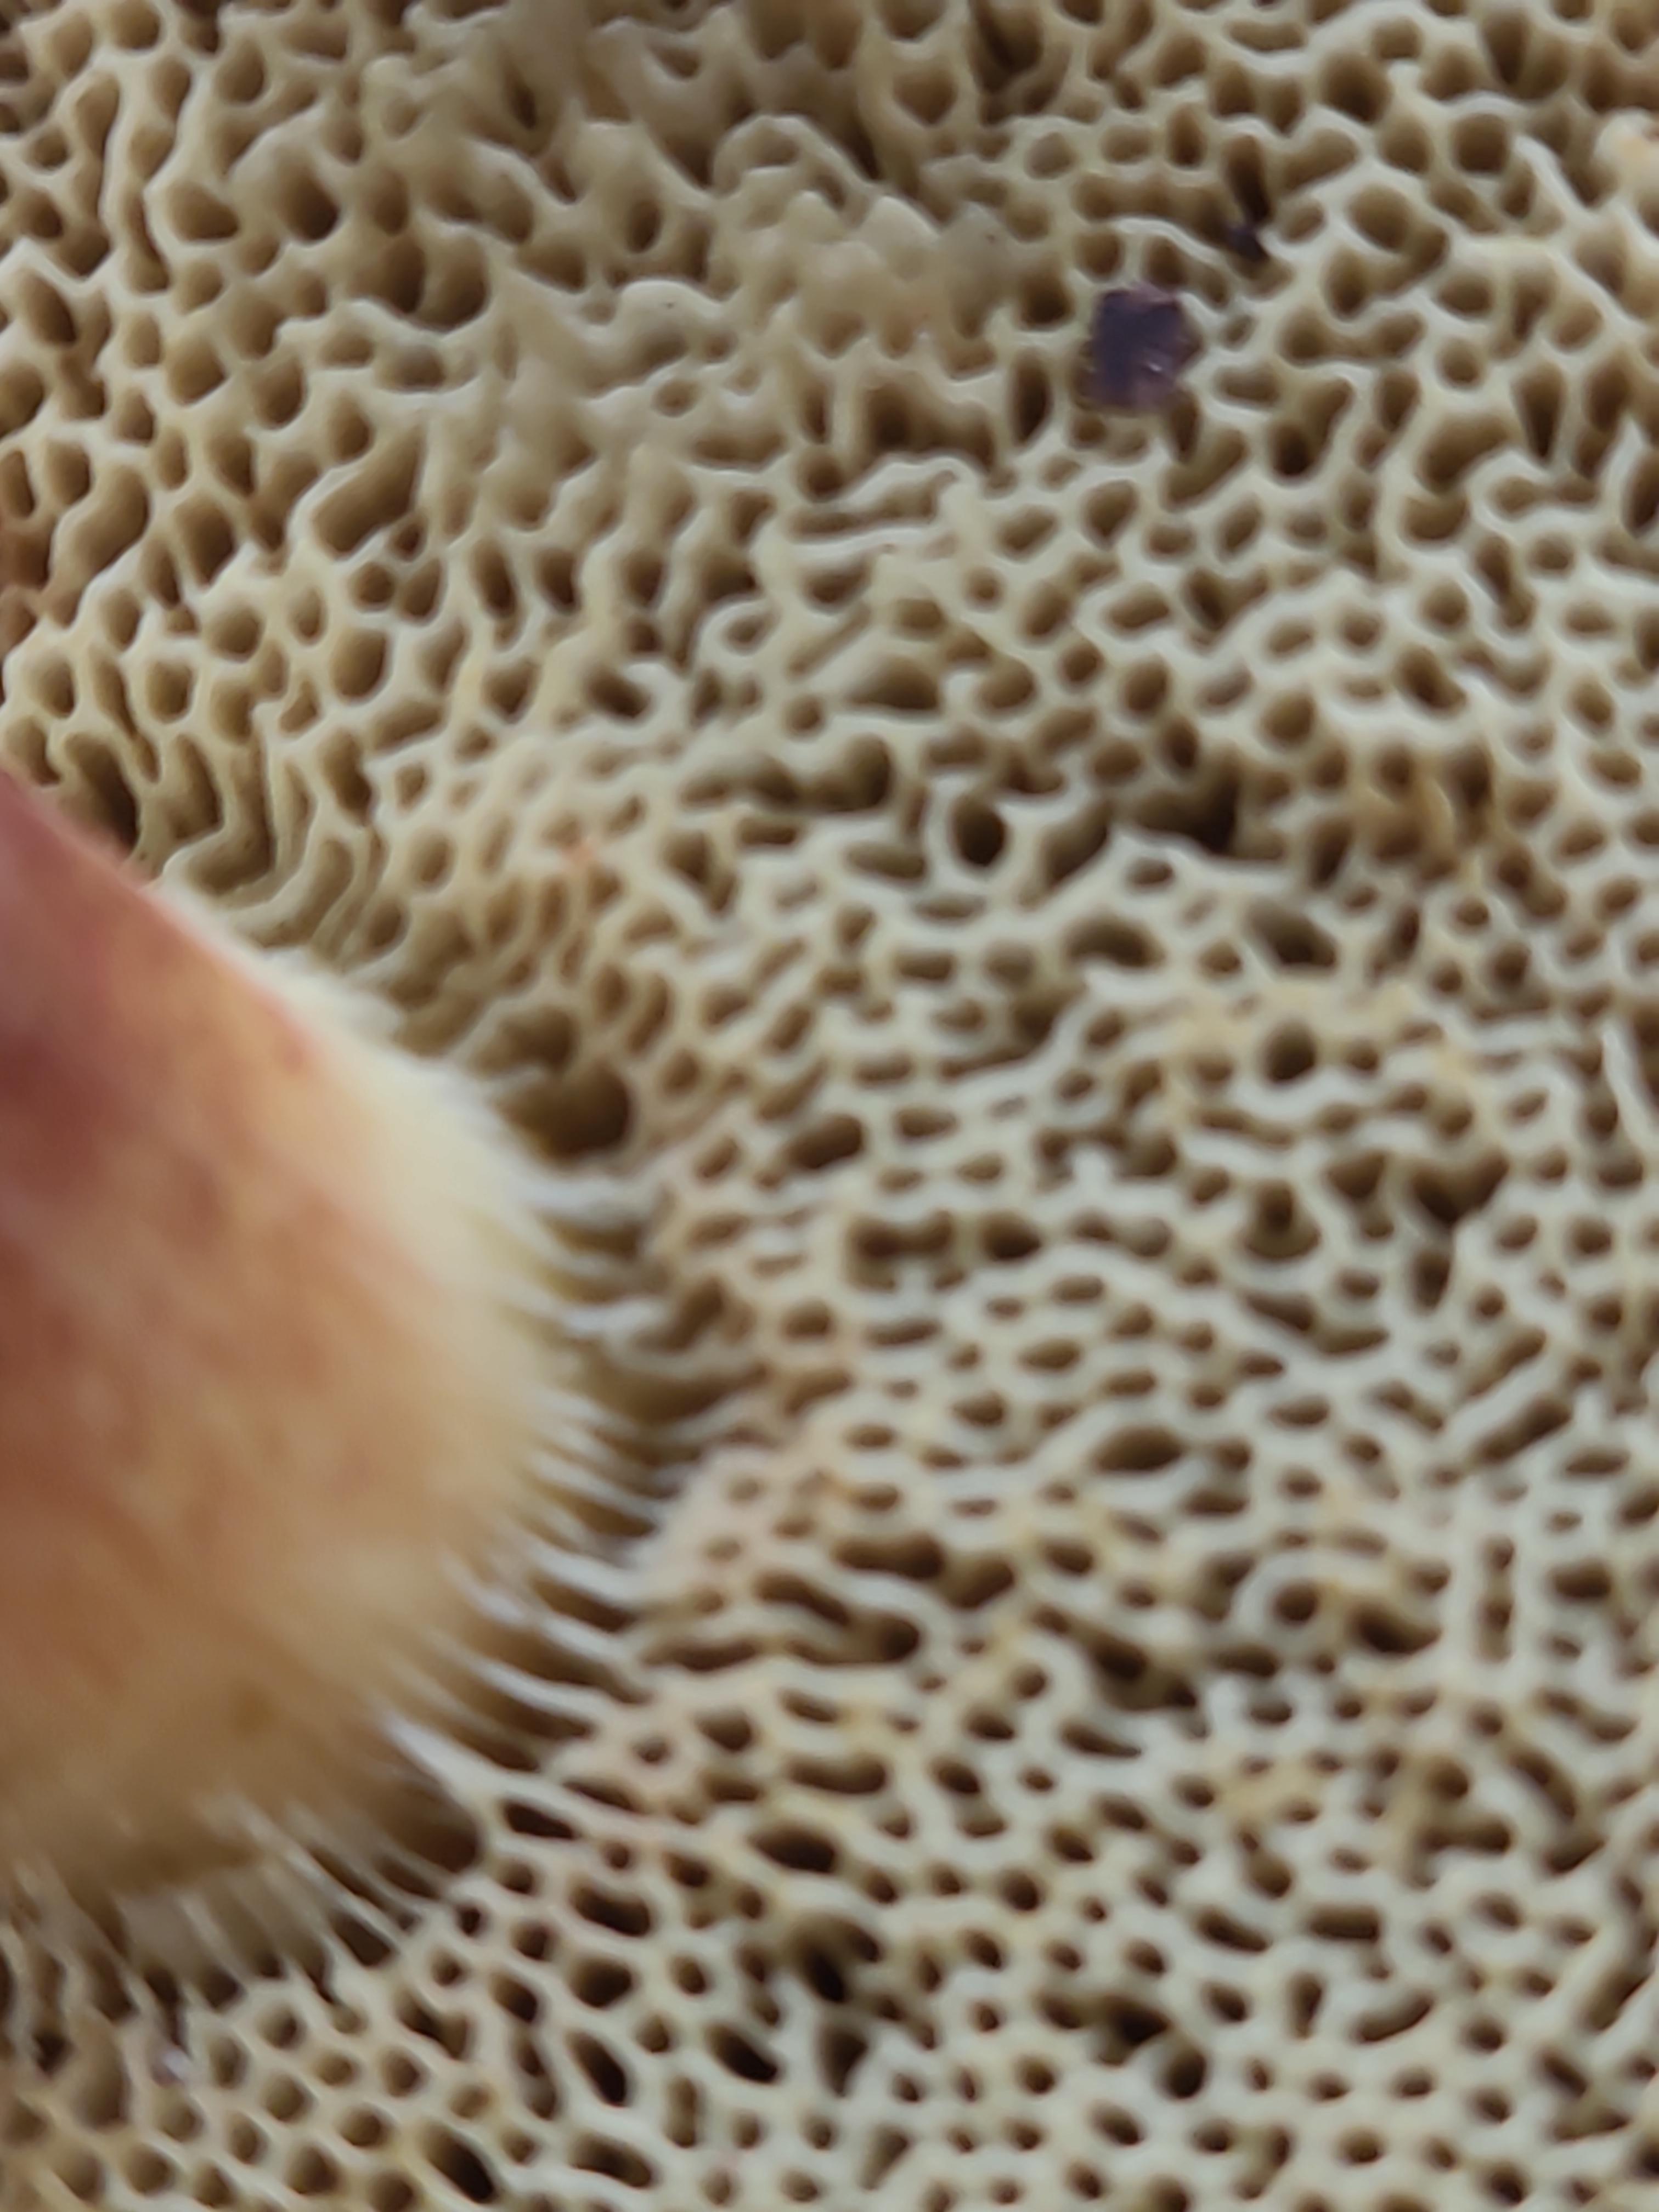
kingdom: Fungi
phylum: Basidiomycota
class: Agaricomycetes
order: Boletales
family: Boletaceae
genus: Xerocomellus
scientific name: Xerocomellus chrysenteron
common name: rødsprukken rørhat
